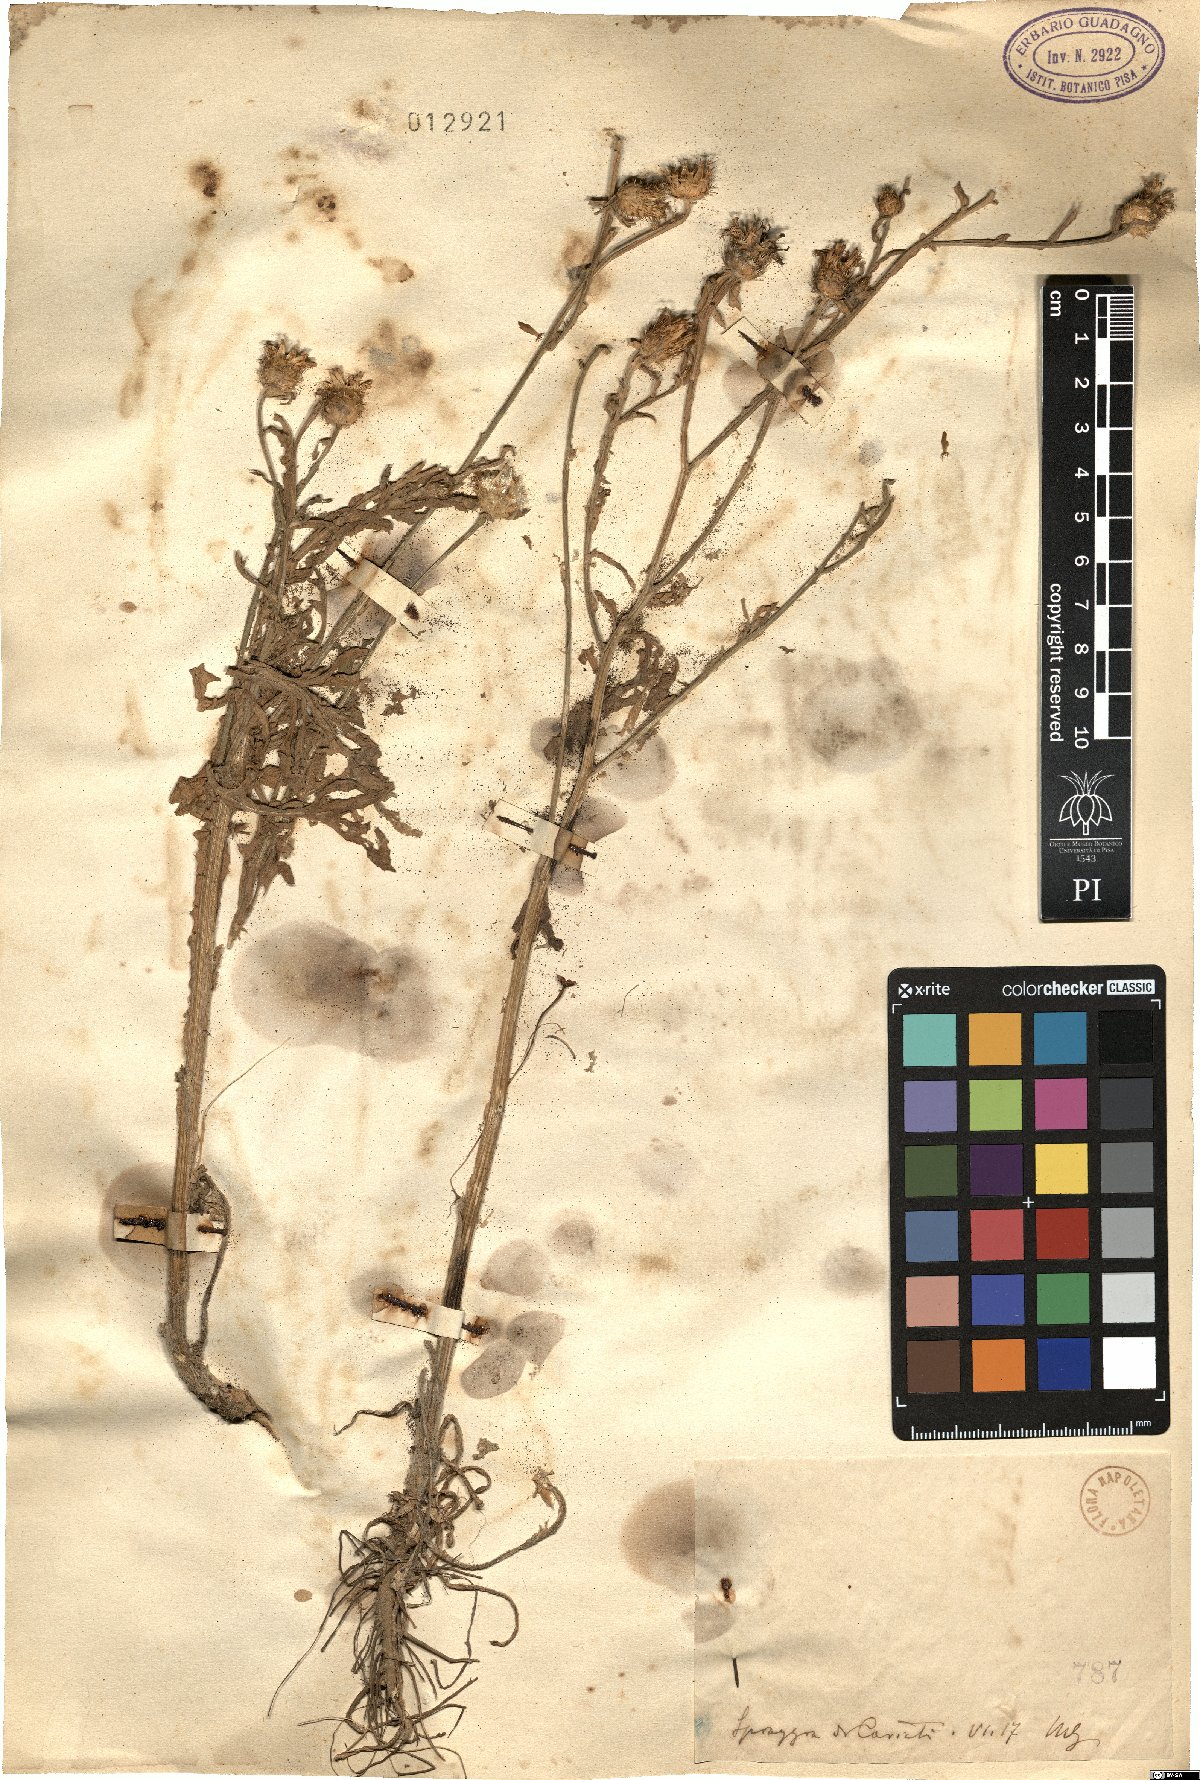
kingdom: Plantae
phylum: Tracheophyta
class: Magnoliopsida
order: Asterales
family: Asteraceae
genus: Centaurea
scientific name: Centaurea
